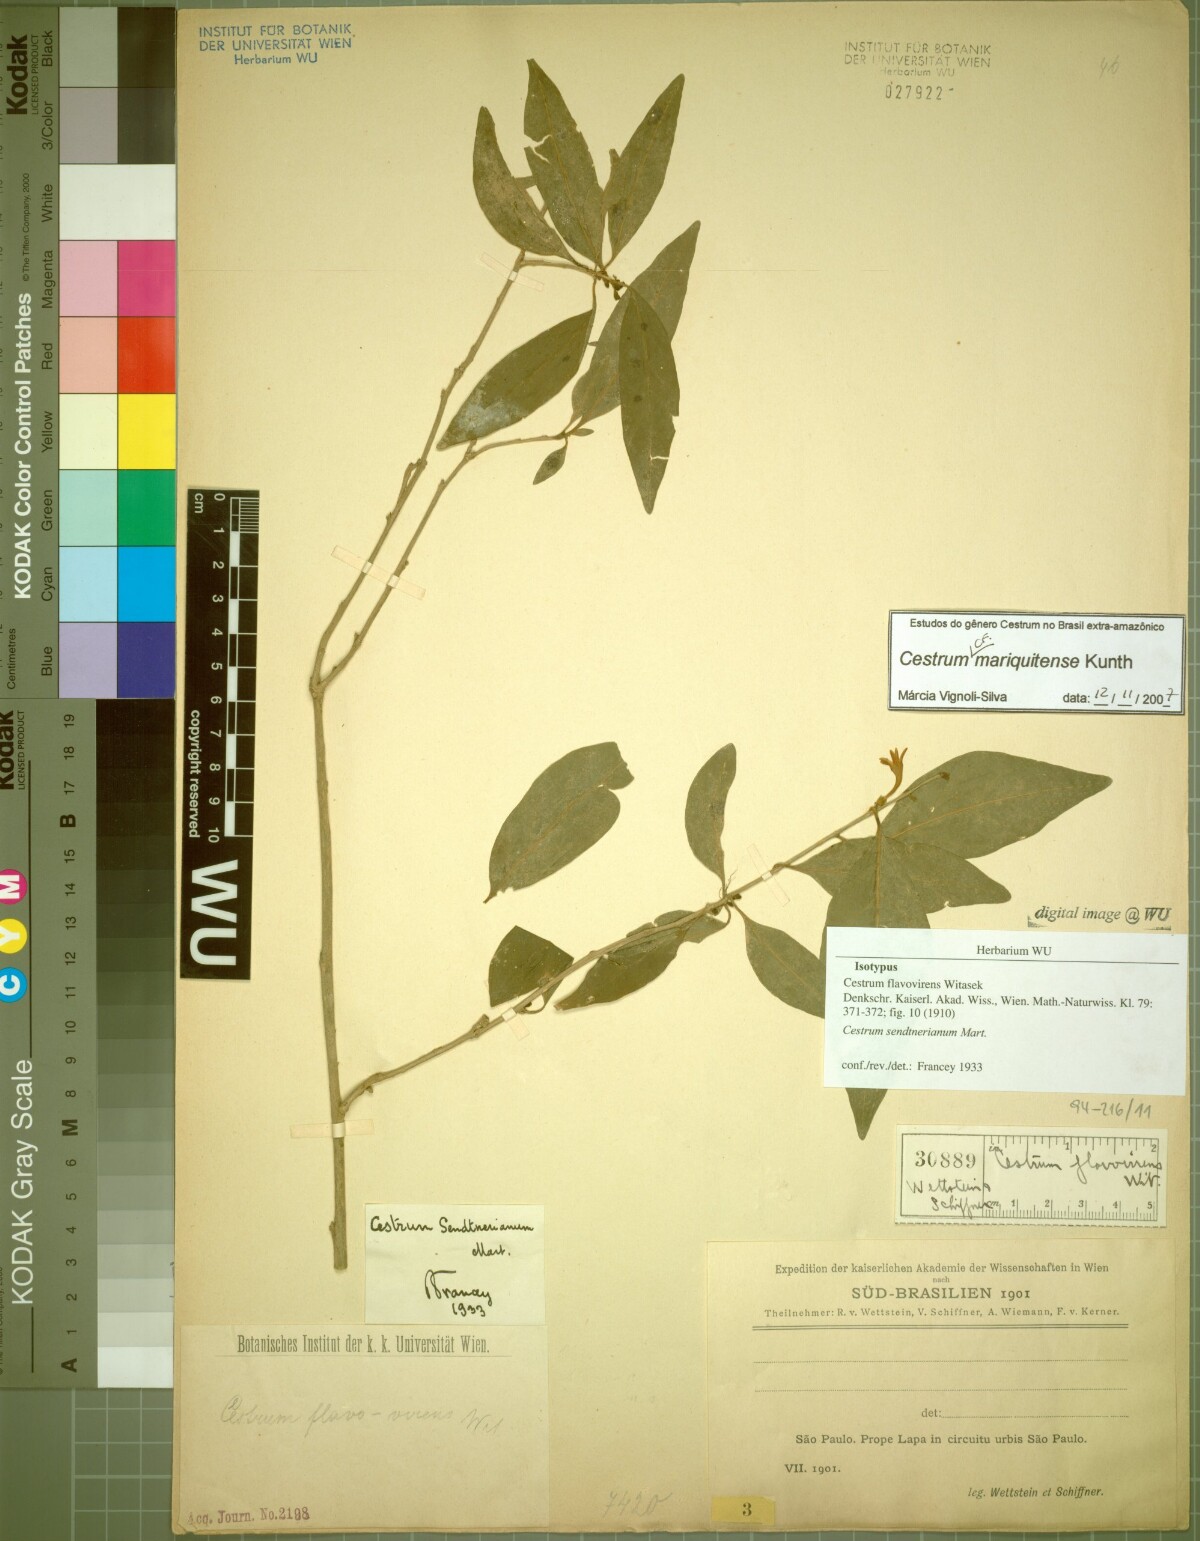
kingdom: Plantae
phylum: Tracheophyta
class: Magnoliopsida
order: Solanales
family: Solanaceae
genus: Cestrum
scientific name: Cestrum mariquitense
